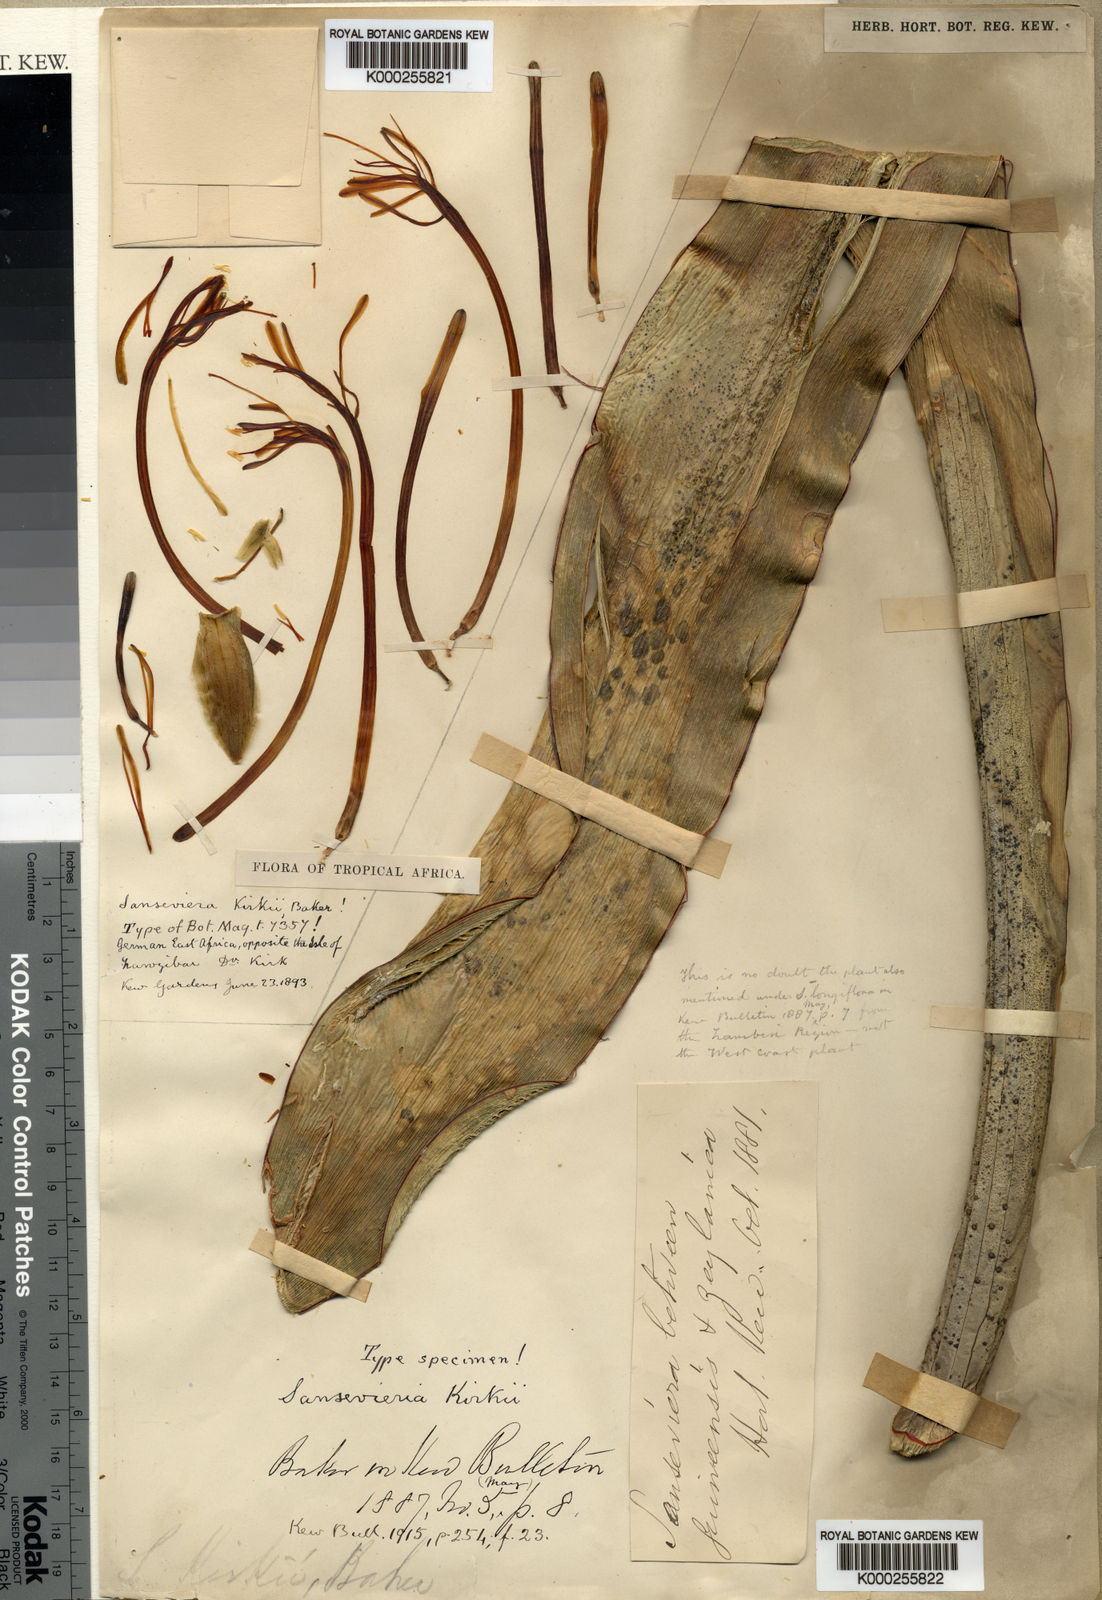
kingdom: Plantae
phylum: Tracheophyta
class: Liliopsida
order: Asparagales
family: Asparagaceae
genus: Dracaena
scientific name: Dracaena pethera
